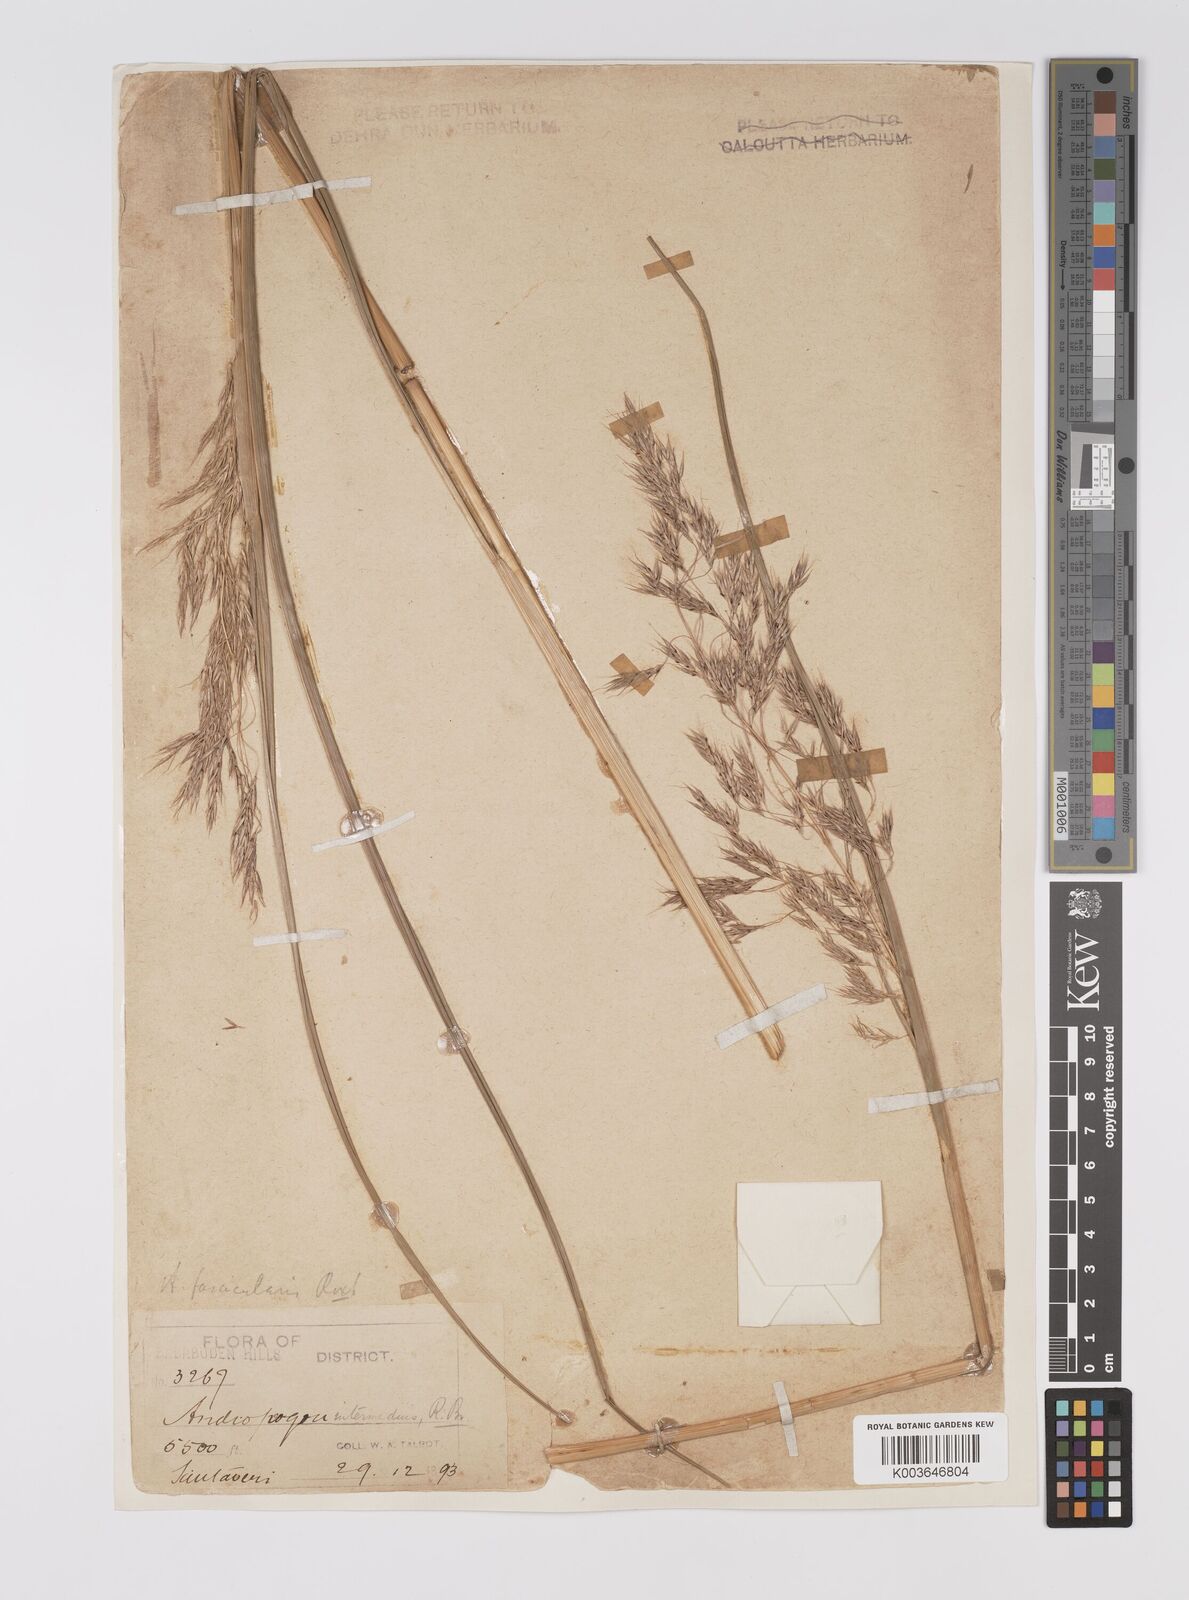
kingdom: Plantae
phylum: Tracheophyta
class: Liliopsida
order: Poales
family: Poaceae
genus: Hemisorghum
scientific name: Hemisorghum venustum
